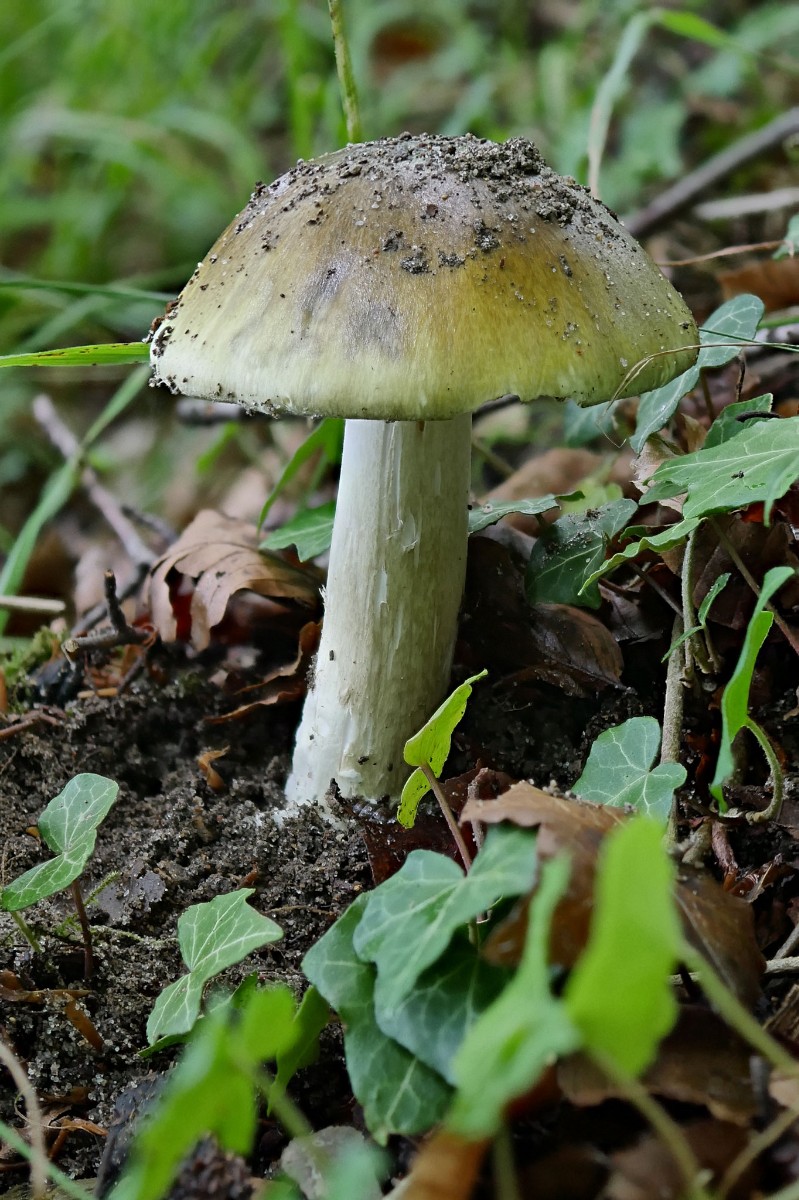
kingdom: Fungi
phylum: Basidiomycota
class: Agaricomycetes
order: Agaricales
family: Amanitaceae
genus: Amanita
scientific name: Amanita phalloides
